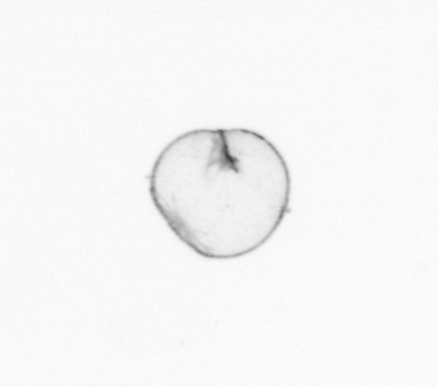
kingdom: Chromista
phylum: Myzozoa
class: Dinophyceae
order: Noctilucales
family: Noctilucaceae
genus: Noctiluca
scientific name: Noctiluca scintillans
